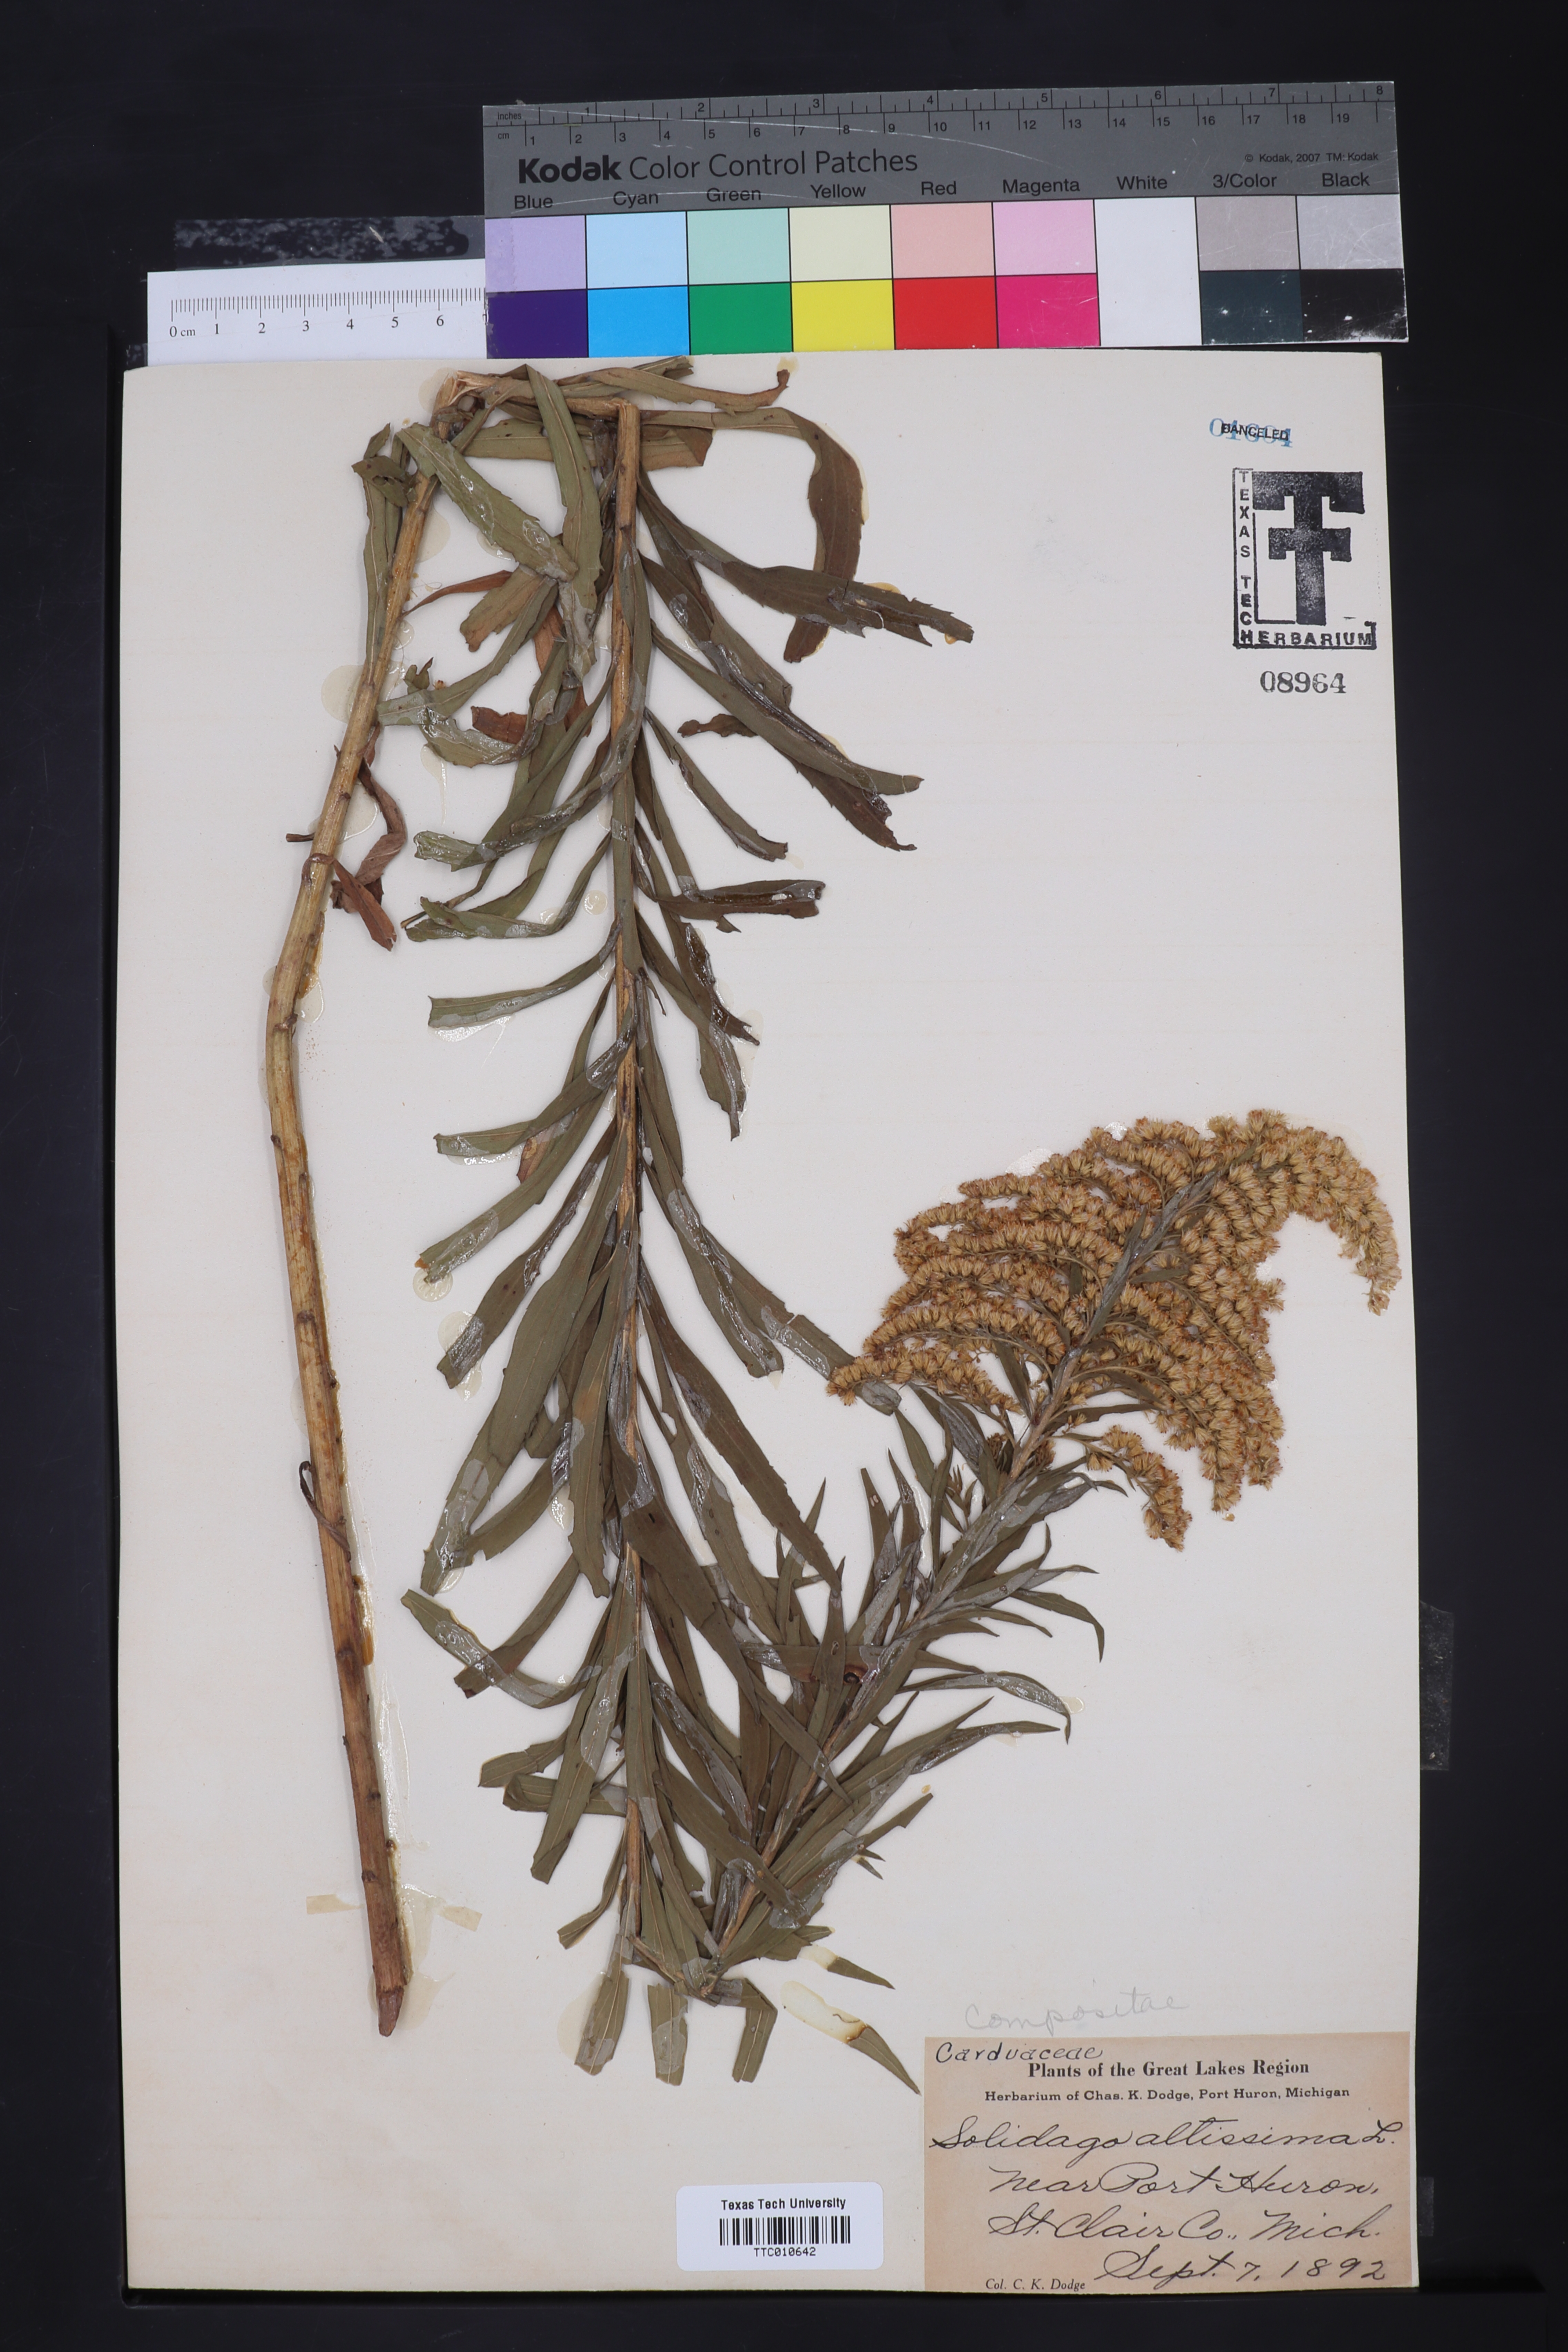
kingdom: Plantae
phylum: Tracheophyta
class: Magnoliopsida
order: Asterales
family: Asteraceae
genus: Solidago
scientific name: Solidago altissima
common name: Late goldenrod
